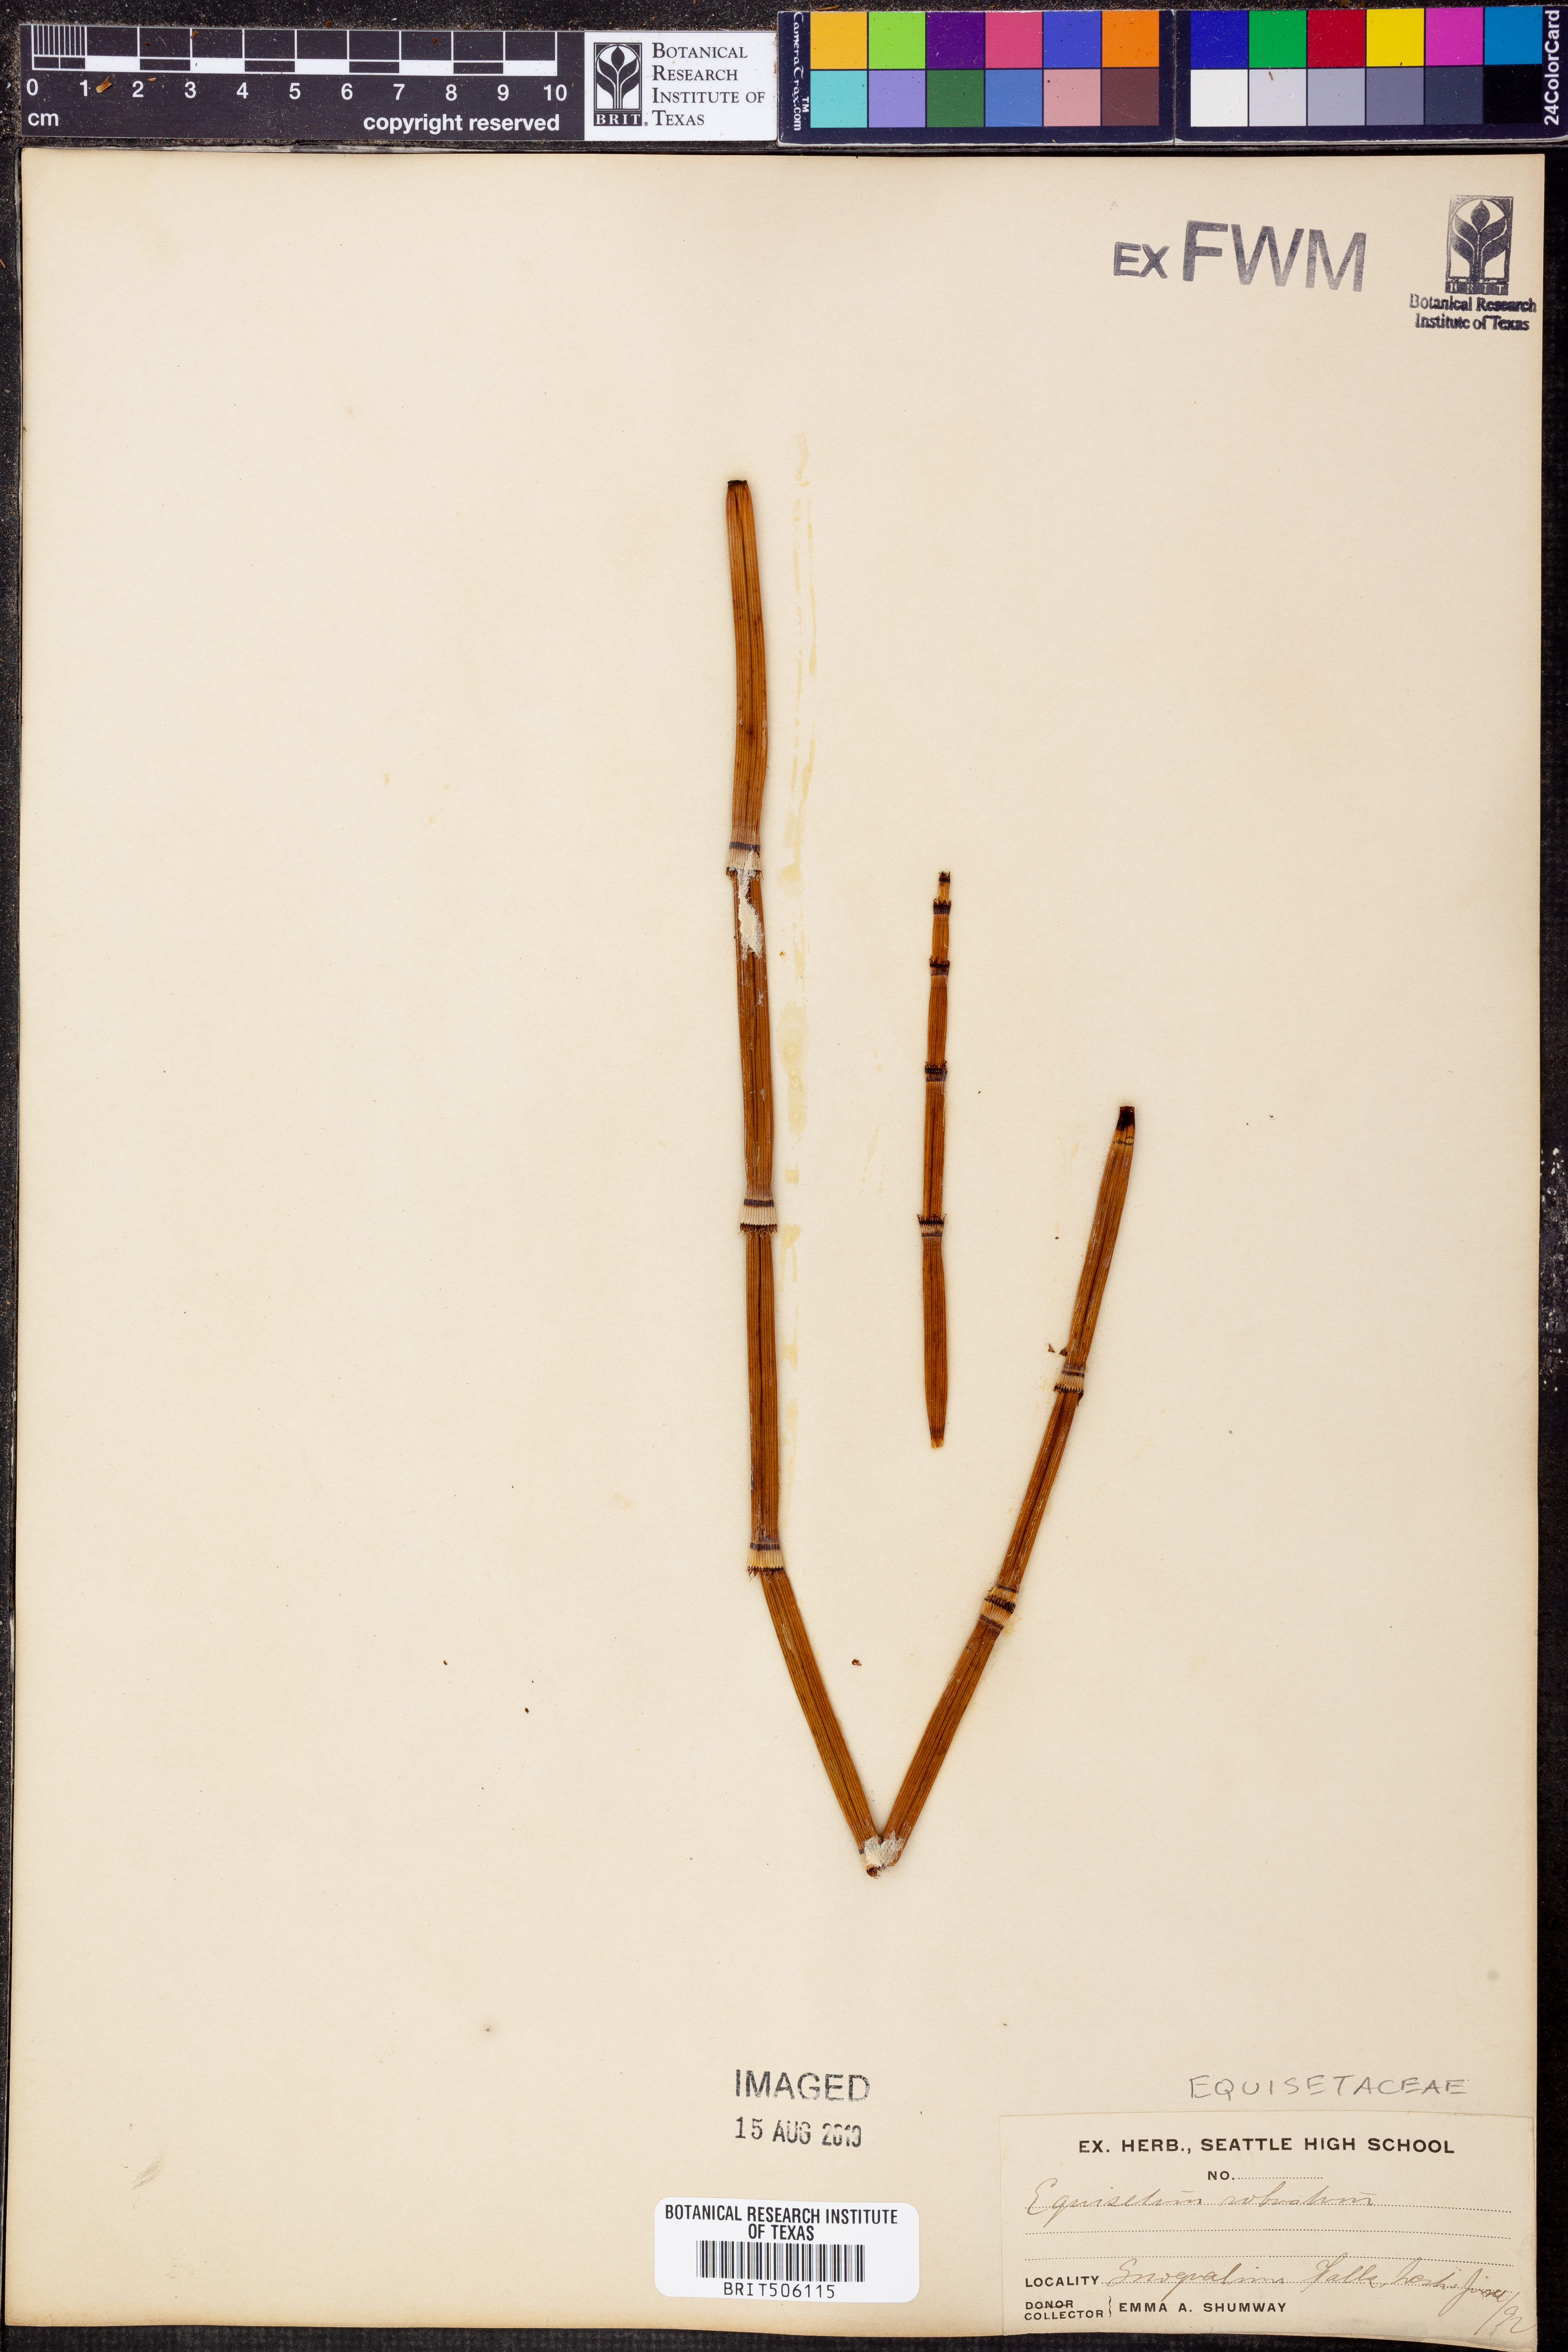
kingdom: Plantae
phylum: Tracheophyta
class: Polypodiopsida
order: Equisetales
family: Equisetaceae
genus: Equisetum
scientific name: Equisetum praealtum
